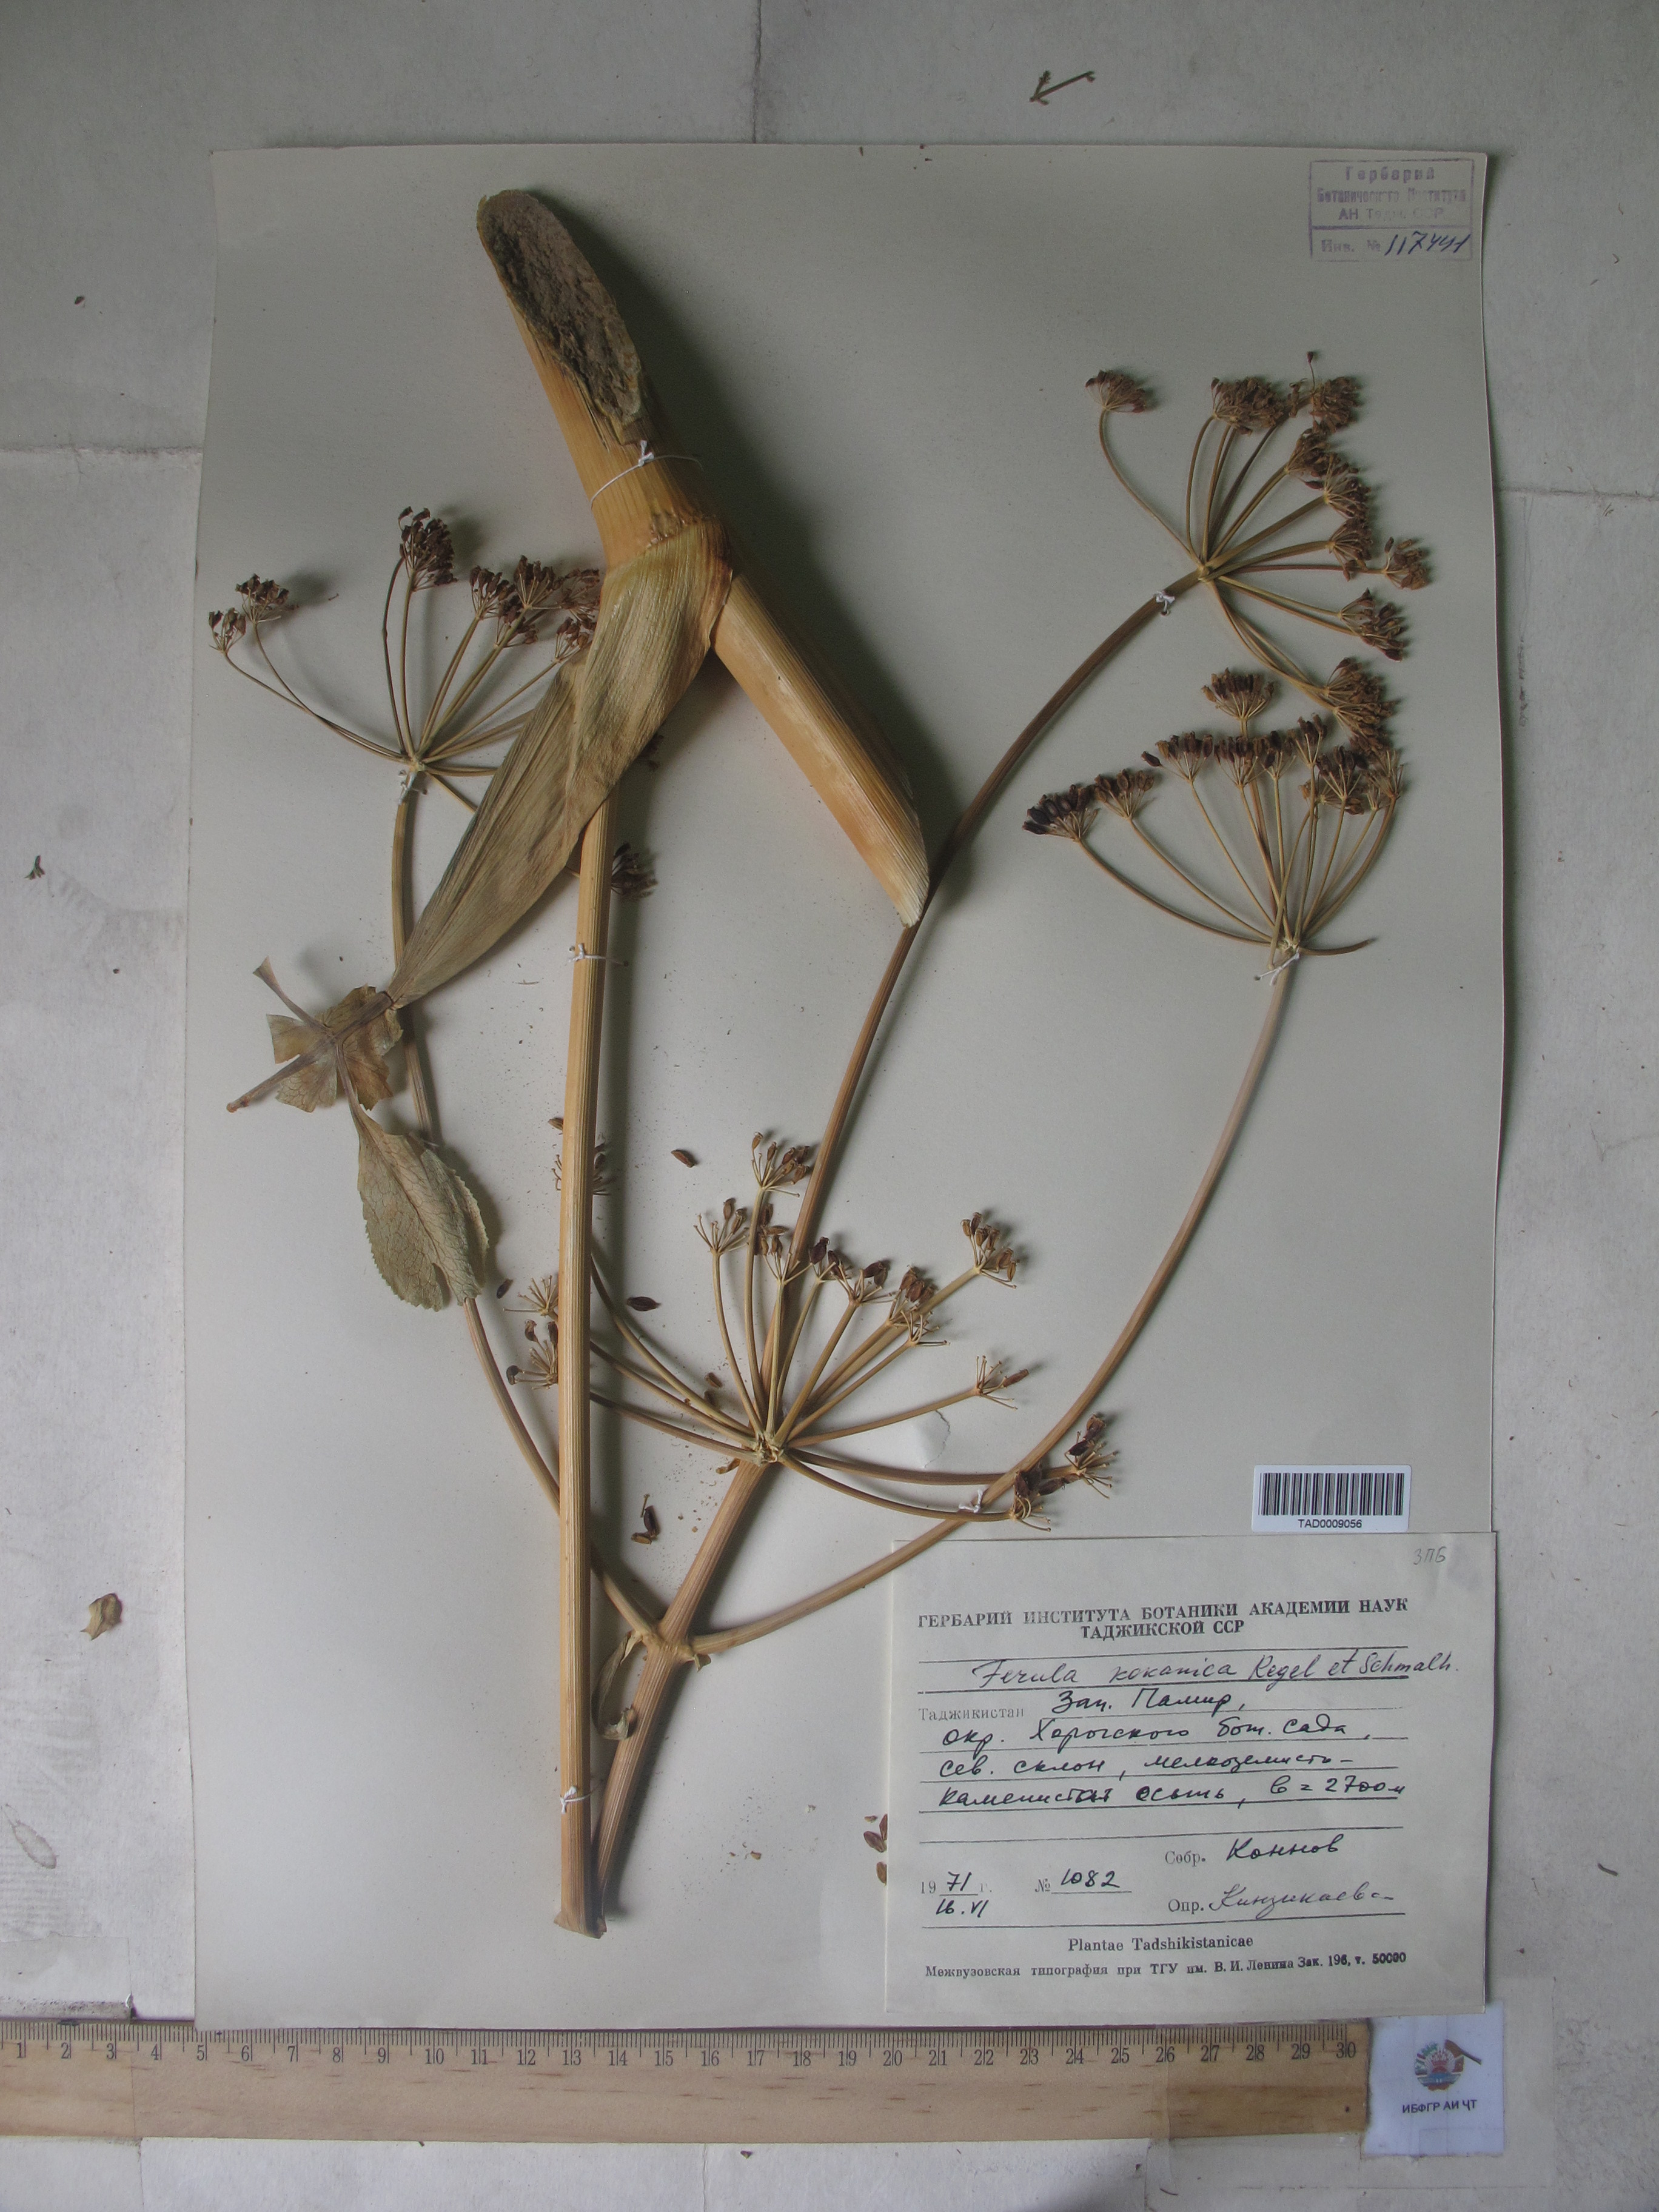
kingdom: Plantae
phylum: Tracheophyta
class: Magnoliopsida
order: Apiales
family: Apiaceae
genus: Ferula
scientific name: Ferula kokanica
